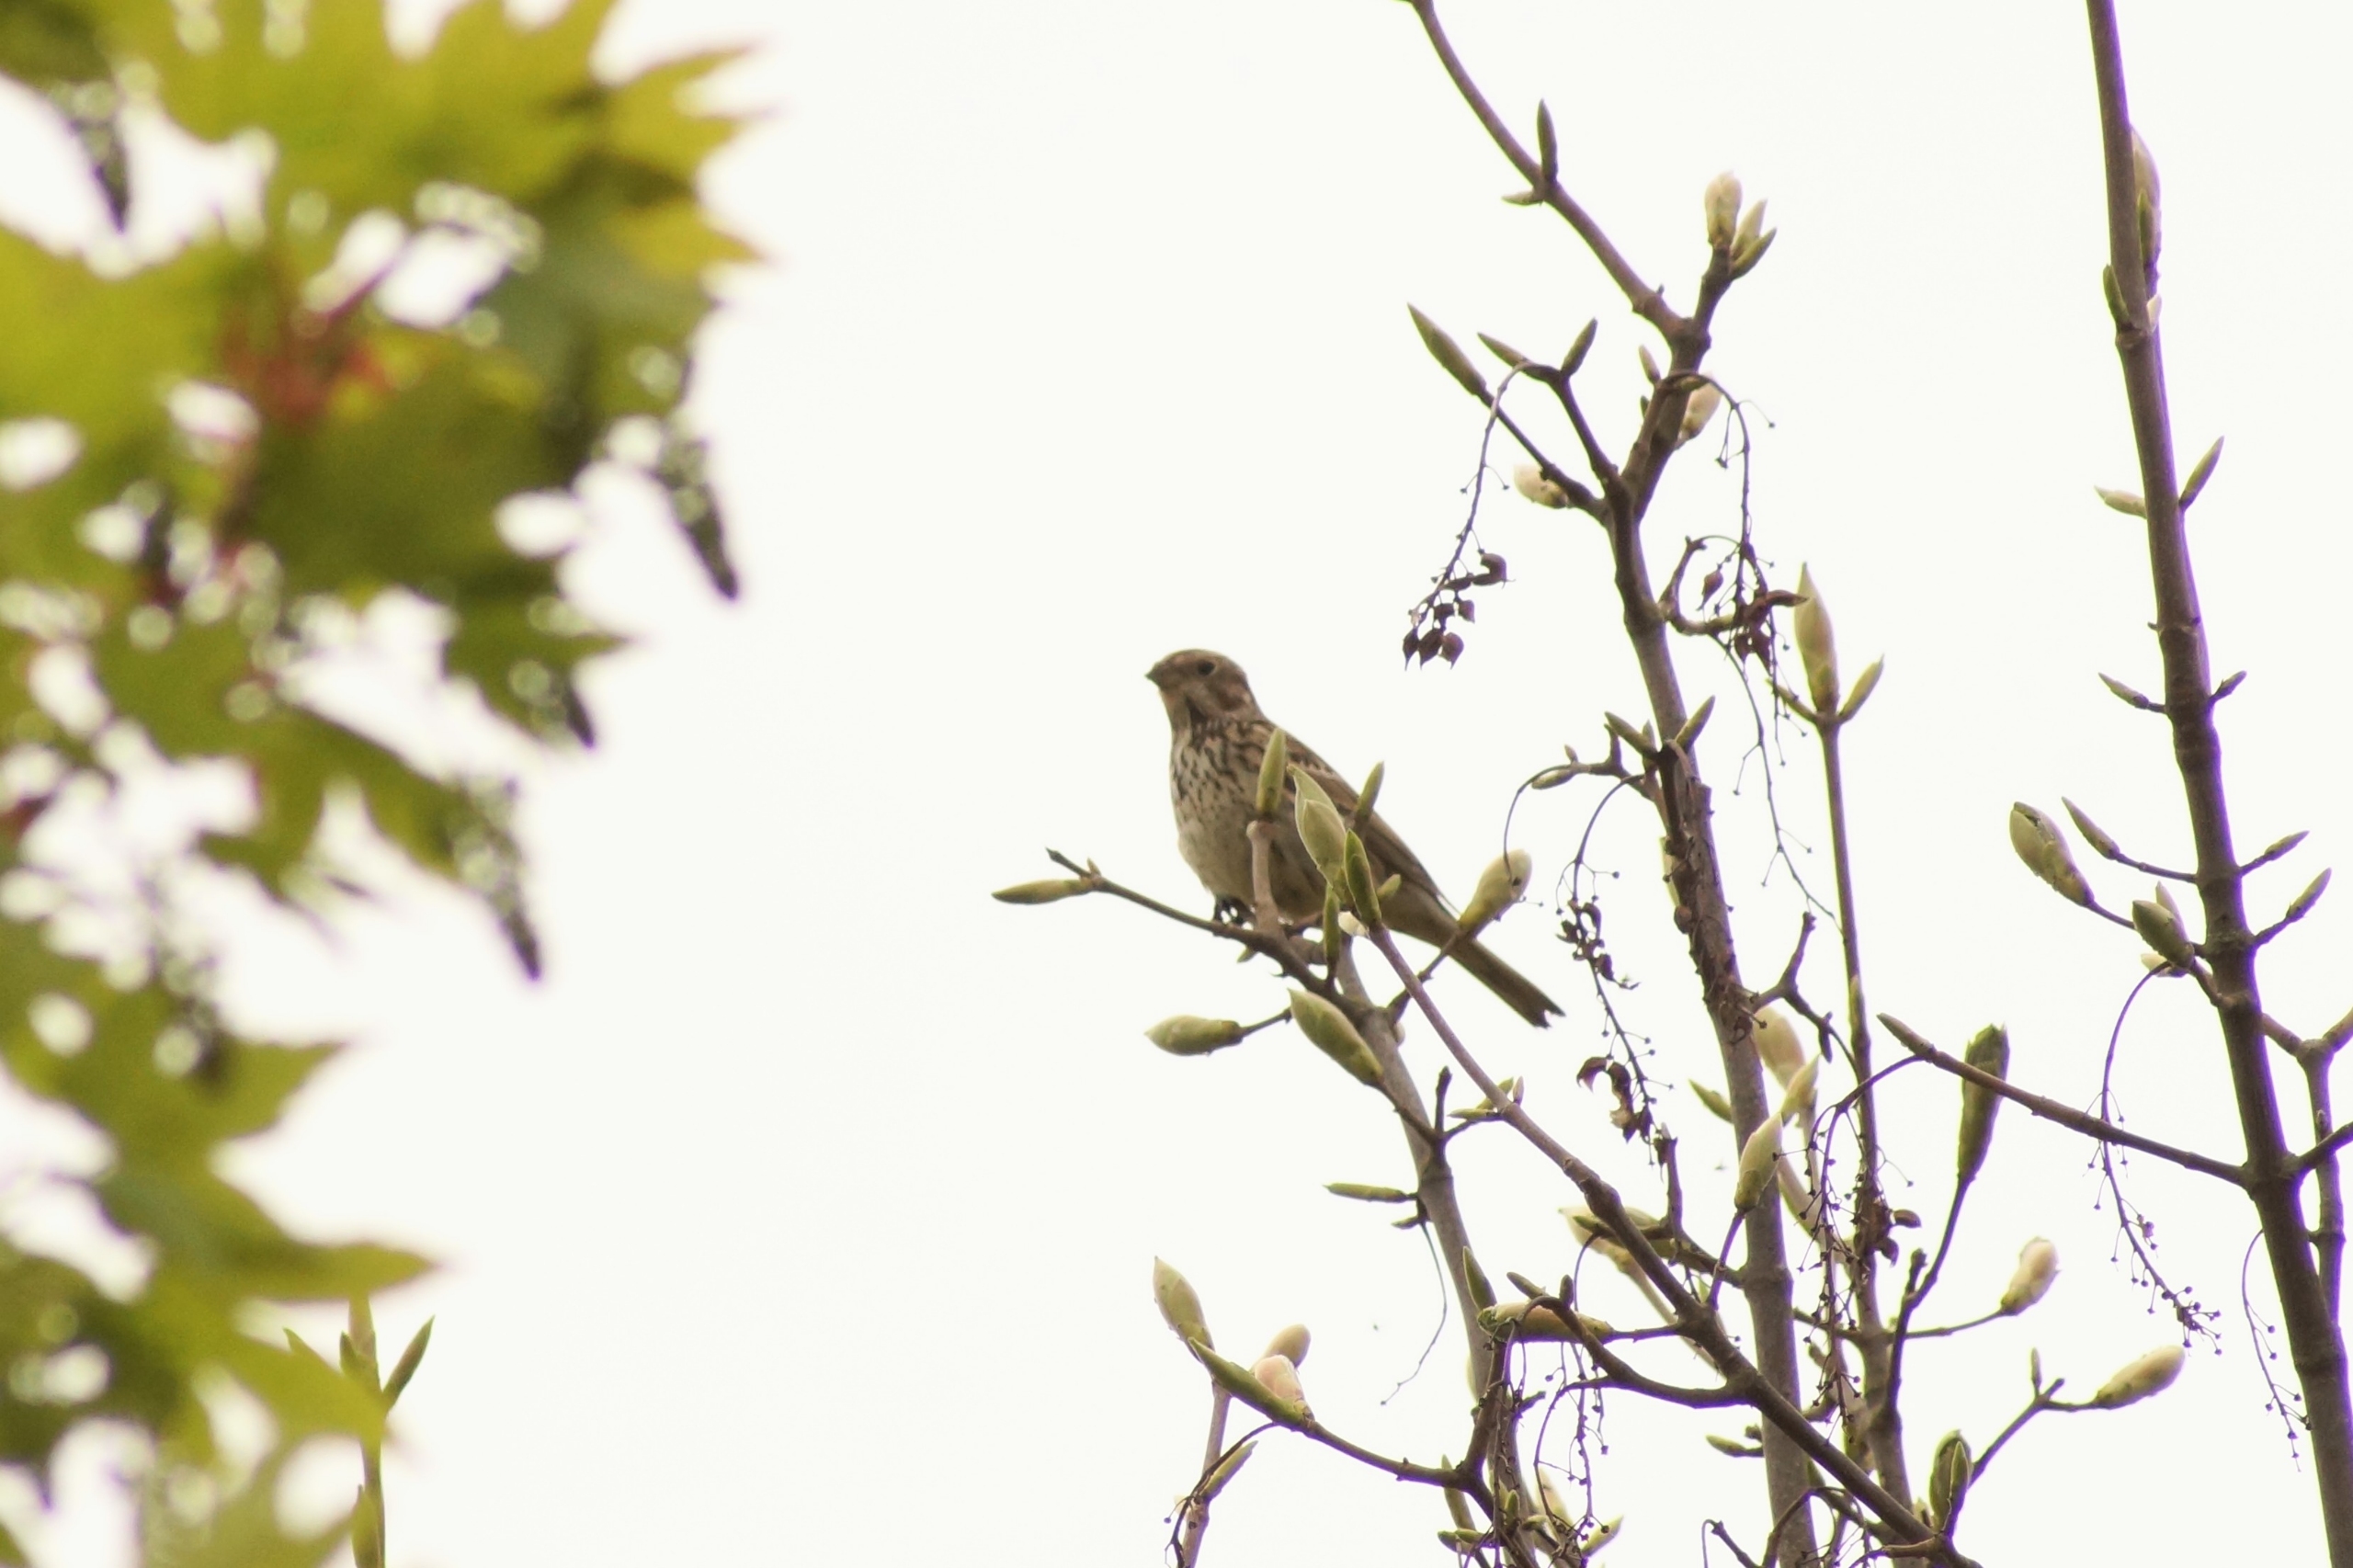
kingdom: Animalia
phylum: Chordata
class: Aves
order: Passeriformes
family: Emberizidae
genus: Emberiza
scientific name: Emberiza calandra
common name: Bomlærke
